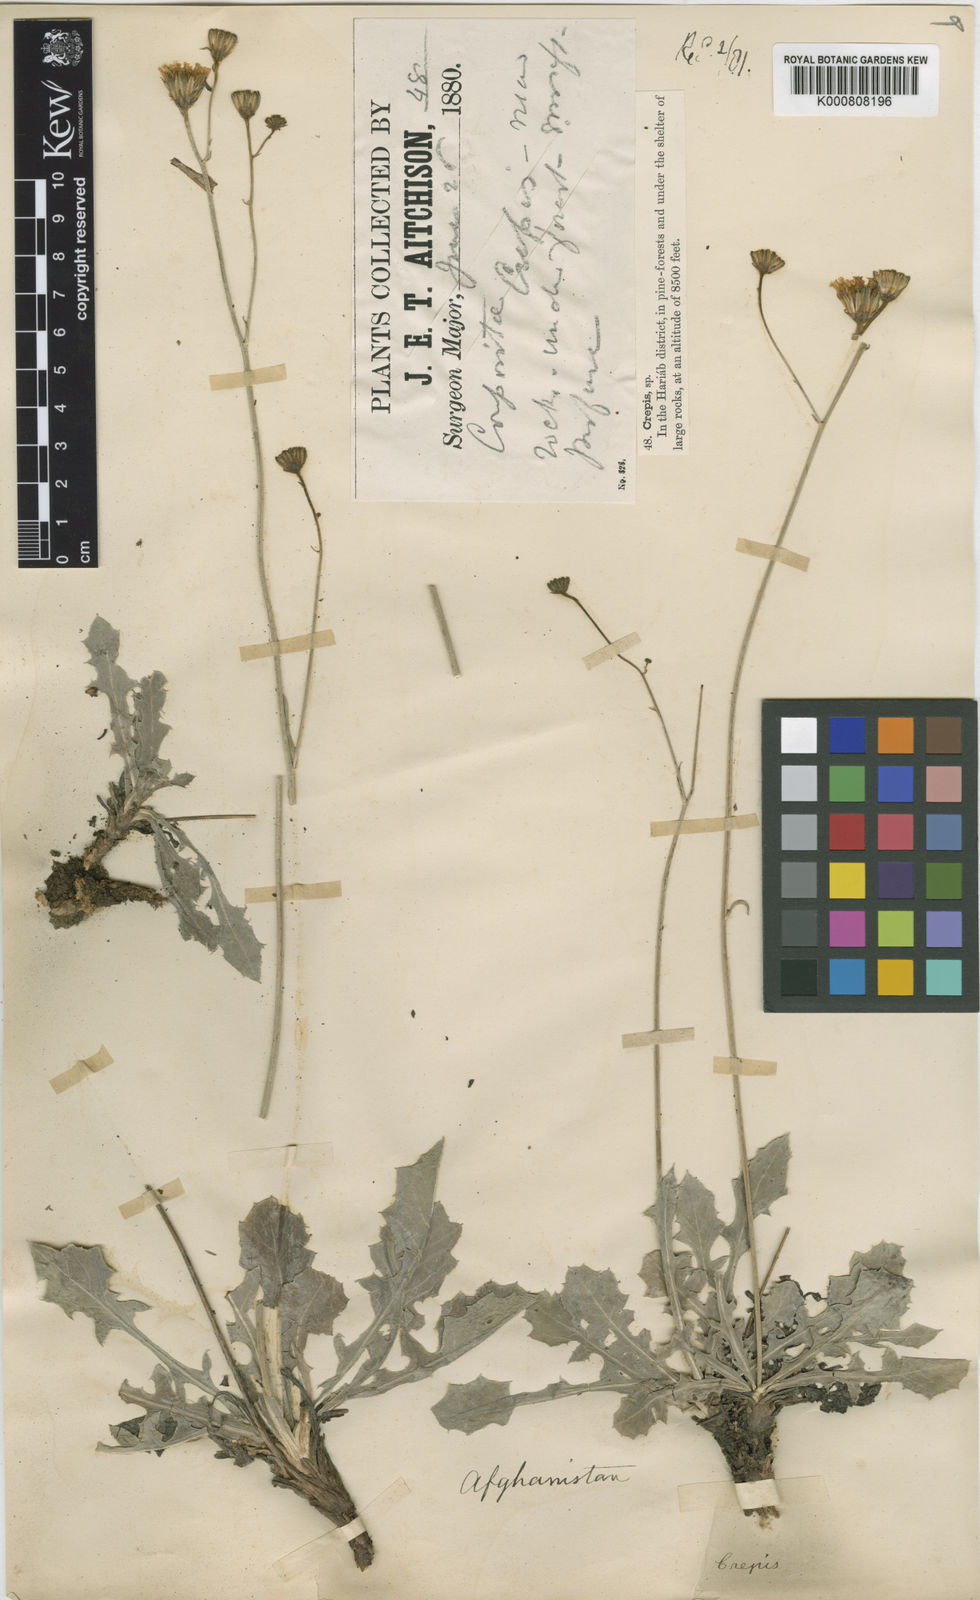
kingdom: Plantae
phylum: Tracheophyta
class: Magnoliopsida
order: Asterales
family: Asteraceae
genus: Crepis
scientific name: Crepis aitchisonii
